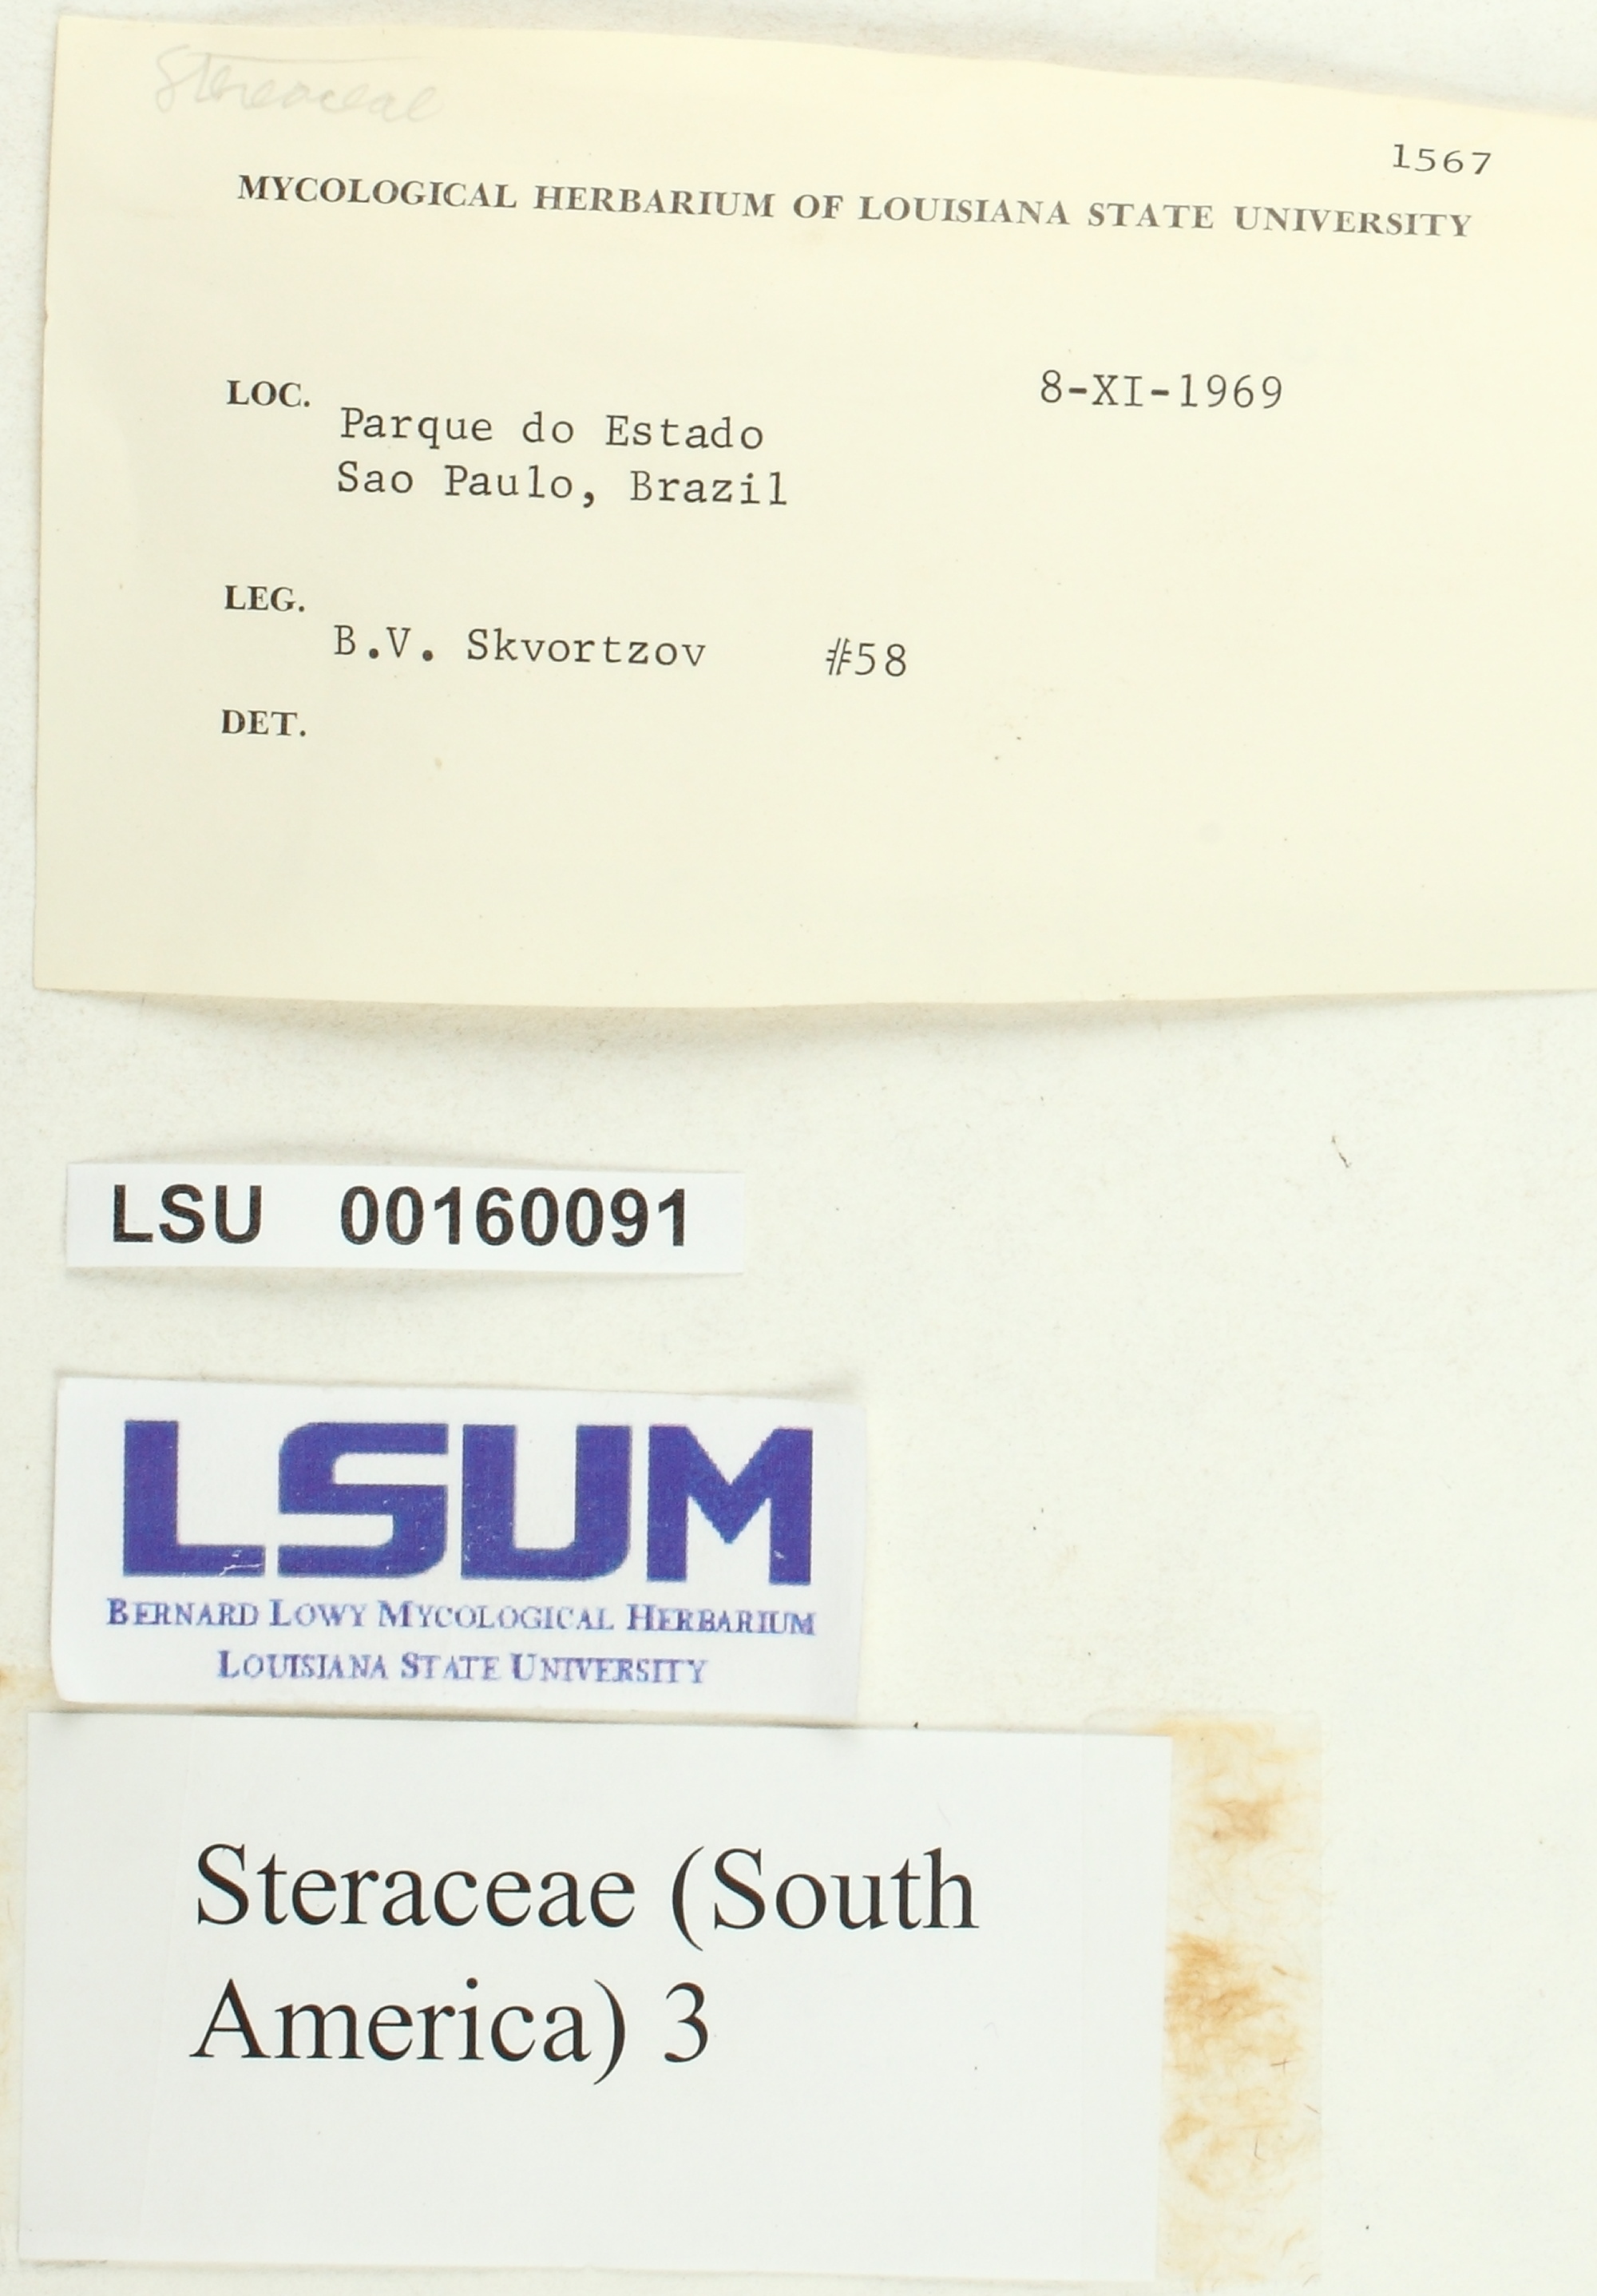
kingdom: Fungi
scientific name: Fungi
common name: Fungi
